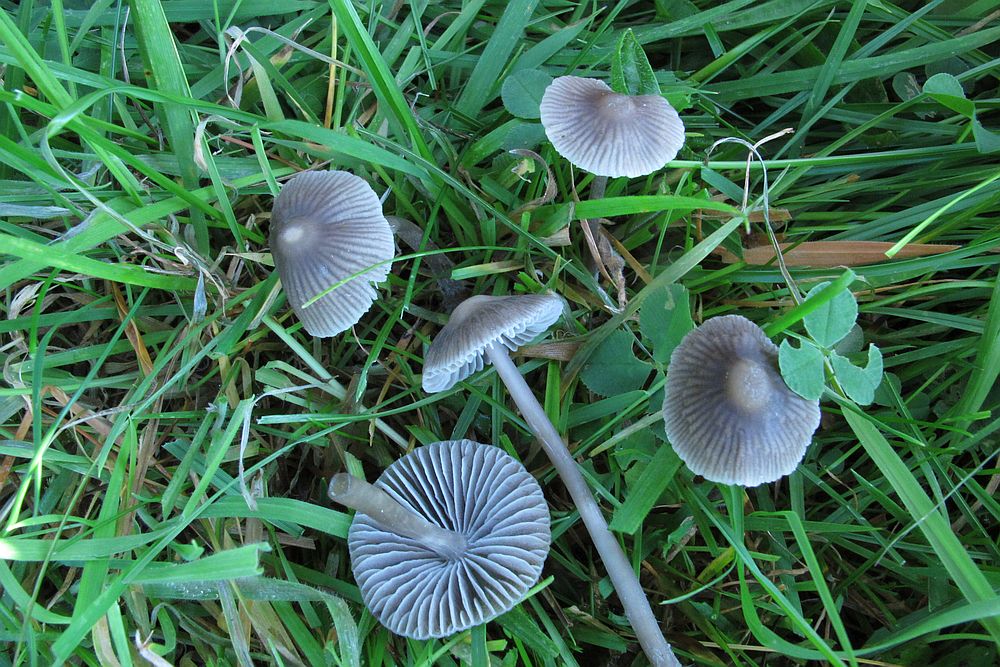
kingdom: Fungi
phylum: Basidiomycota
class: Agaricomycetes
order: Agaricales
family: Mycenaceae
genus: Mycena
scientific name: Mycena aetites
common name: plæne-huesvamp
